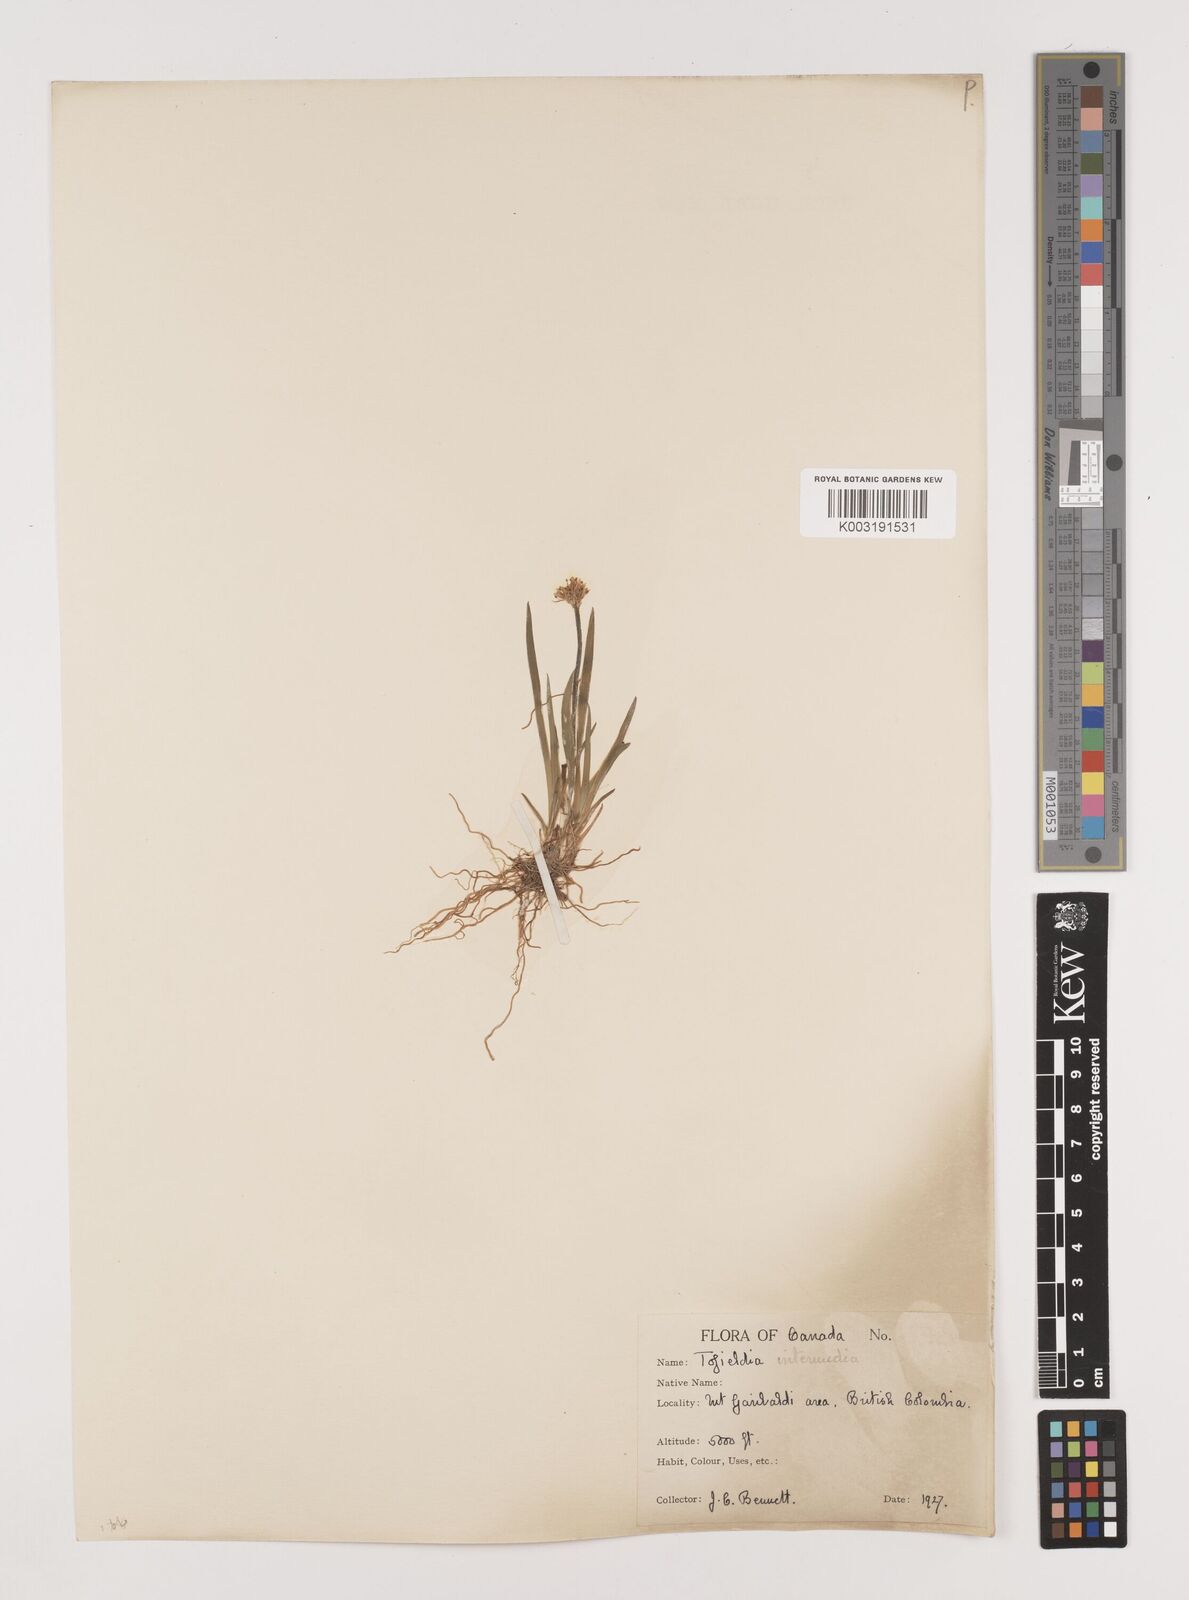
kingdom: Plantae
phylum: Tracheophyta
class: Liliopsida
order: Alismatales
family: Tofieldiaceae
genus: Triantha
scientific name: Triantha occidentalis
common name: Western false asphodel
